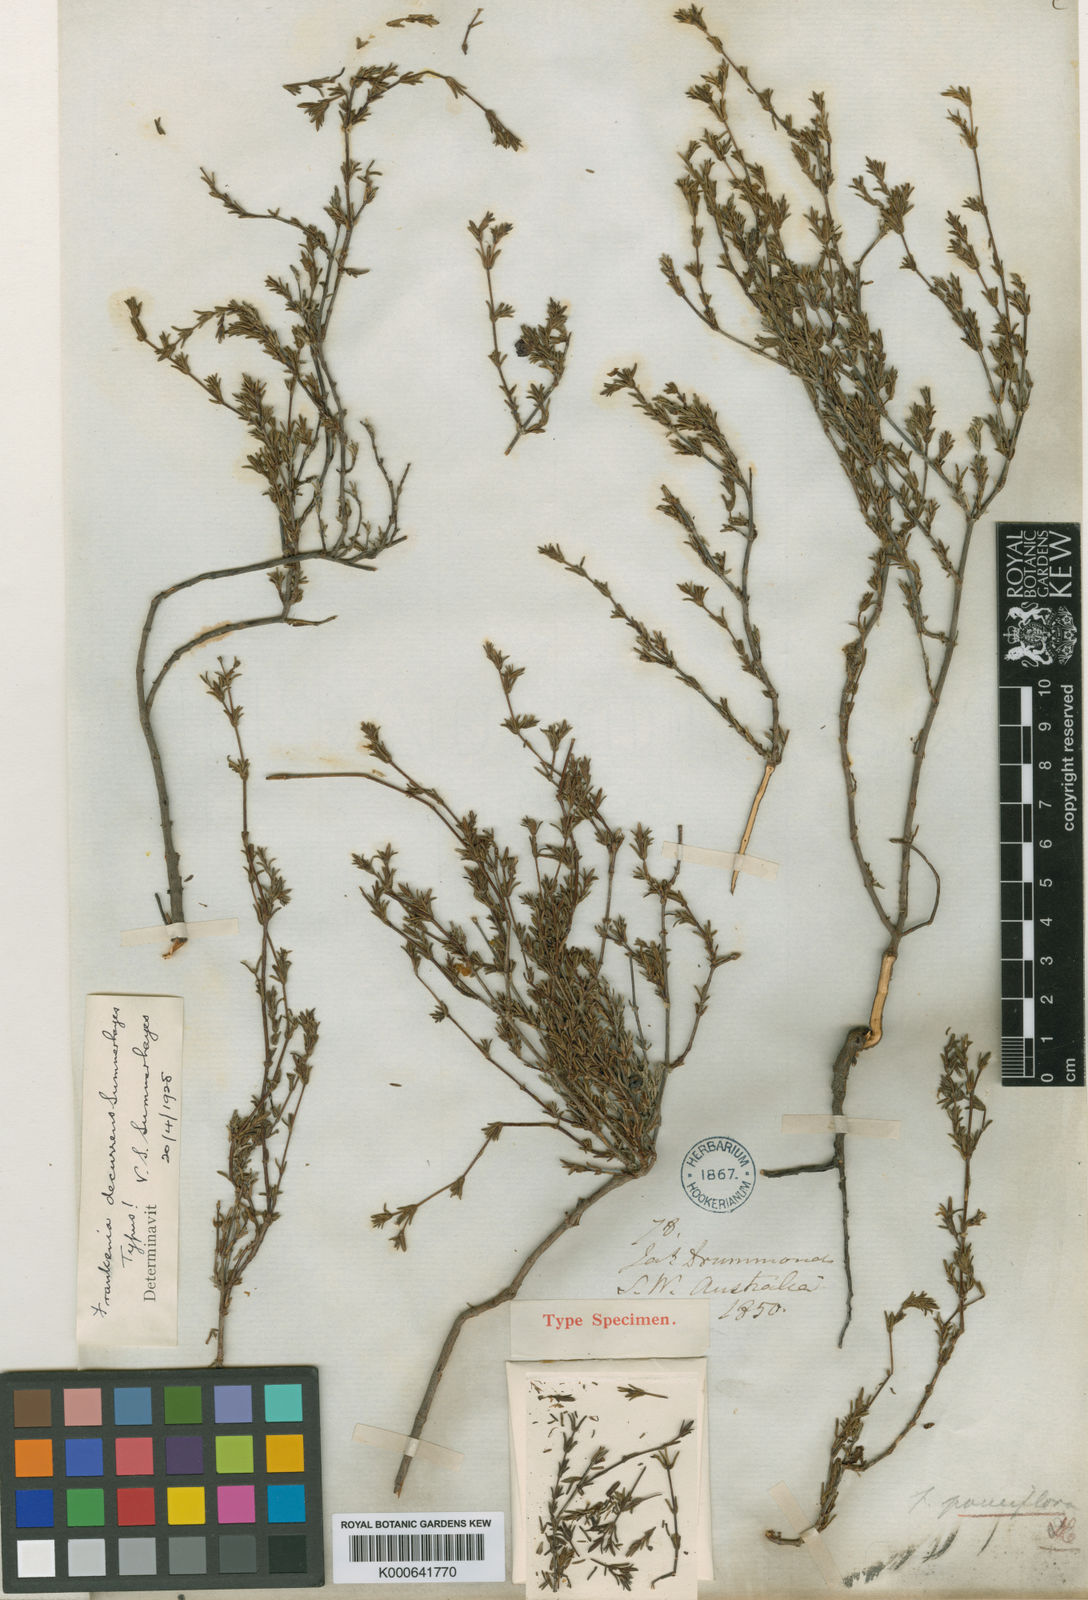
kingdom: Plantae
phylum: Tracheophyta
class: Magnoliopsida
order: Caryophyllales
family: Frankeniaceae
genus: Frankenia
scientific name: Frankenia decurrens
